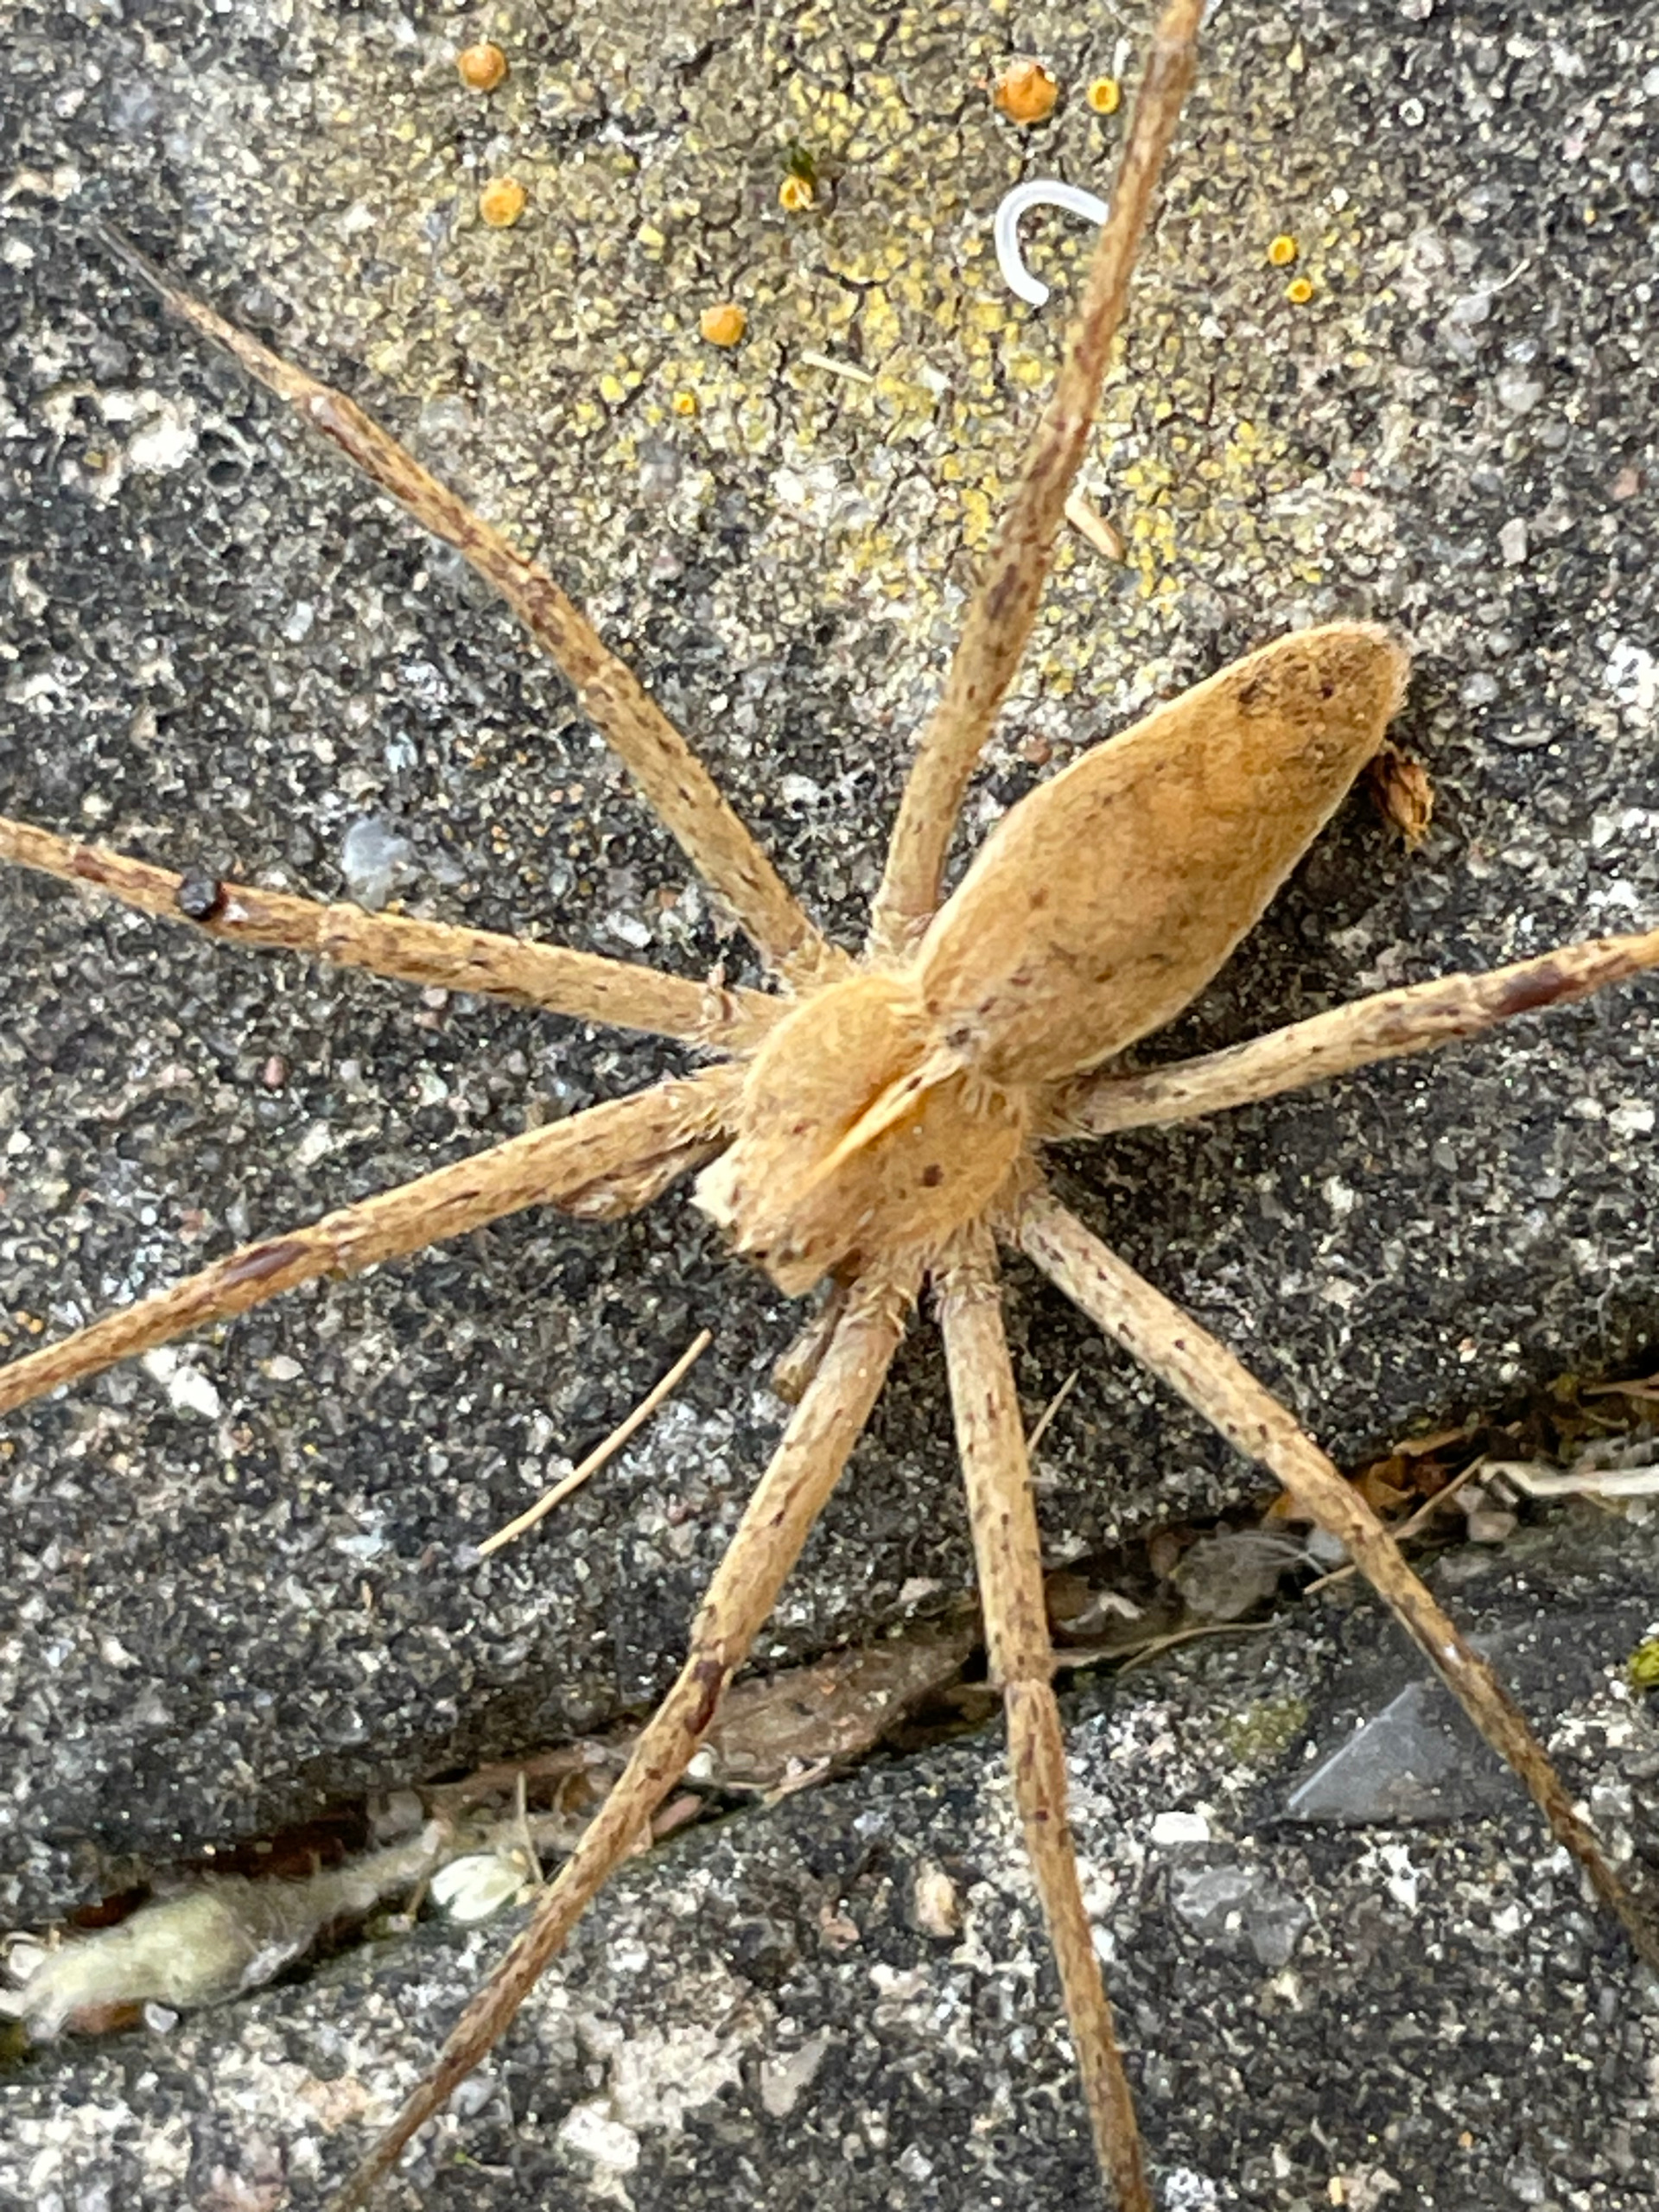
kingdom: Animalia
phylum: Arthropoda
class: Arachnida
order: Araneae
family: Pisauridae
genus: Pisaura
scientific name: Pisaura mirabilis
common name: Almindelig rovedderkop
